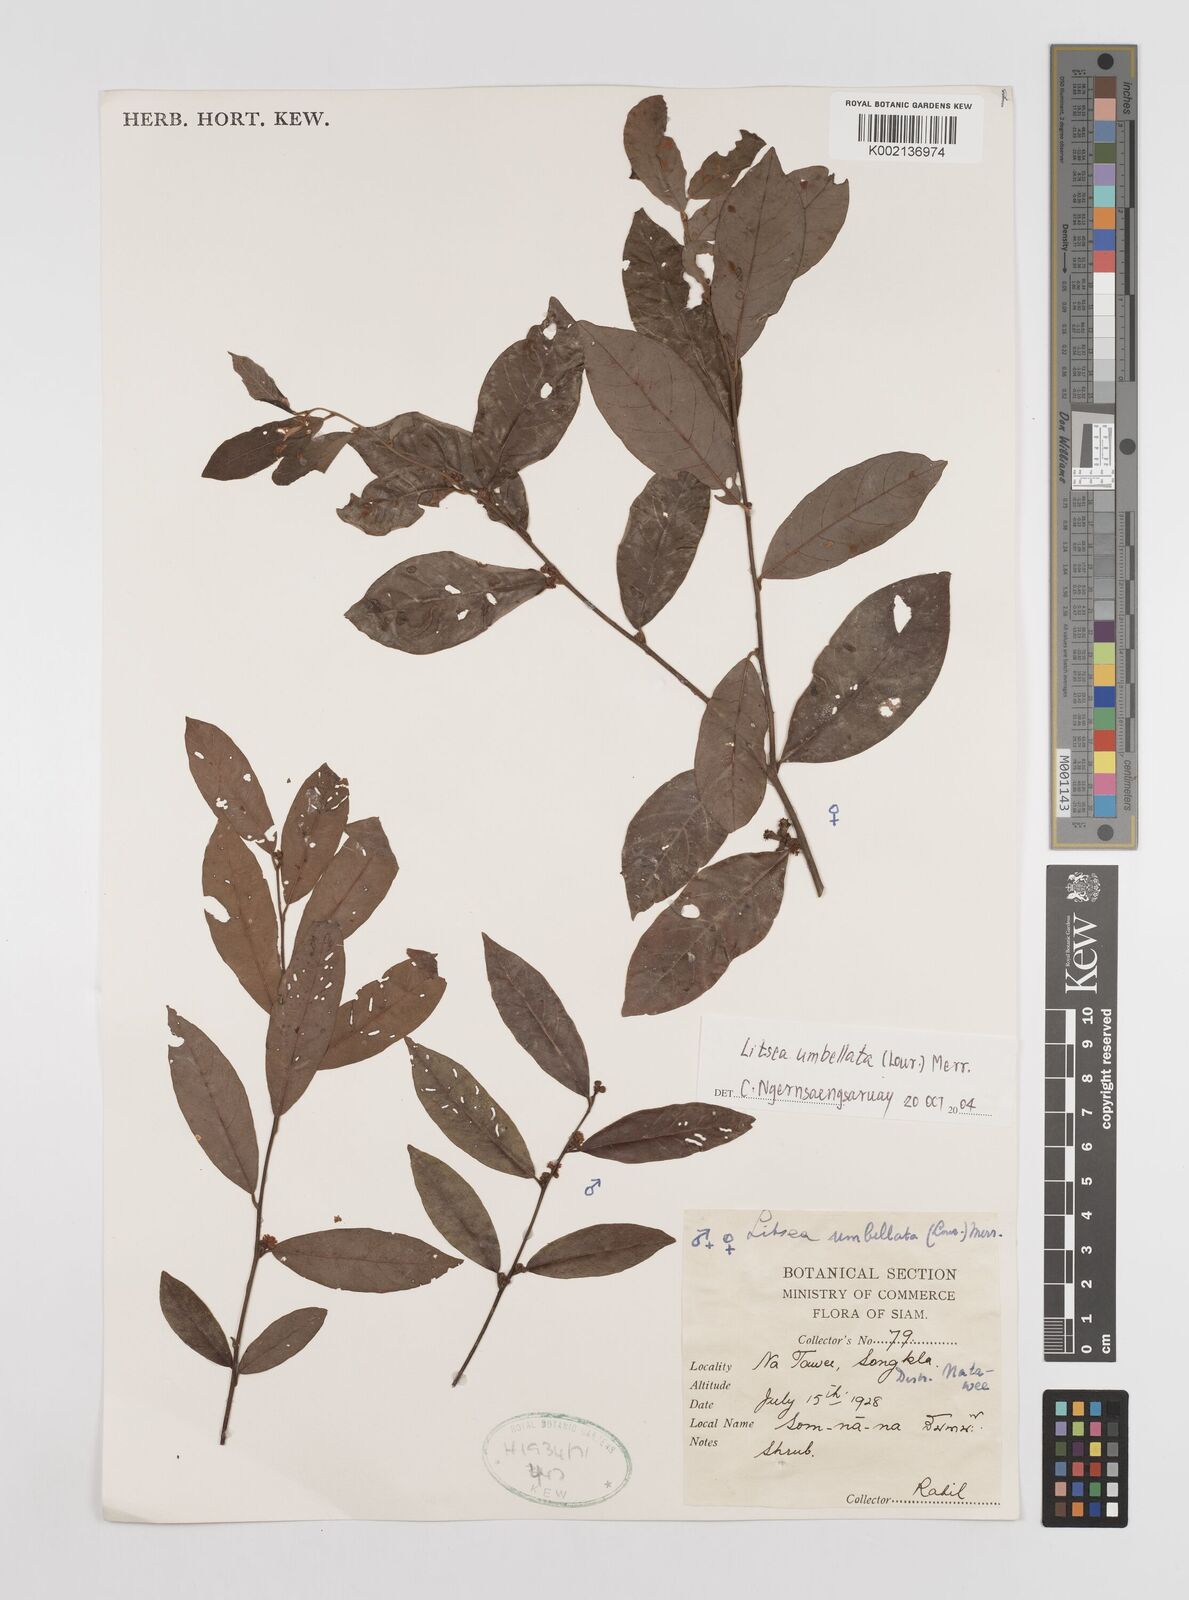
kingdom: Plantae
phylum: Tracheophyta
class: Magnoliopsida
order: Laurales
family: Lauraceae
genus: Litsea
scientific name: Litsea umbellata
